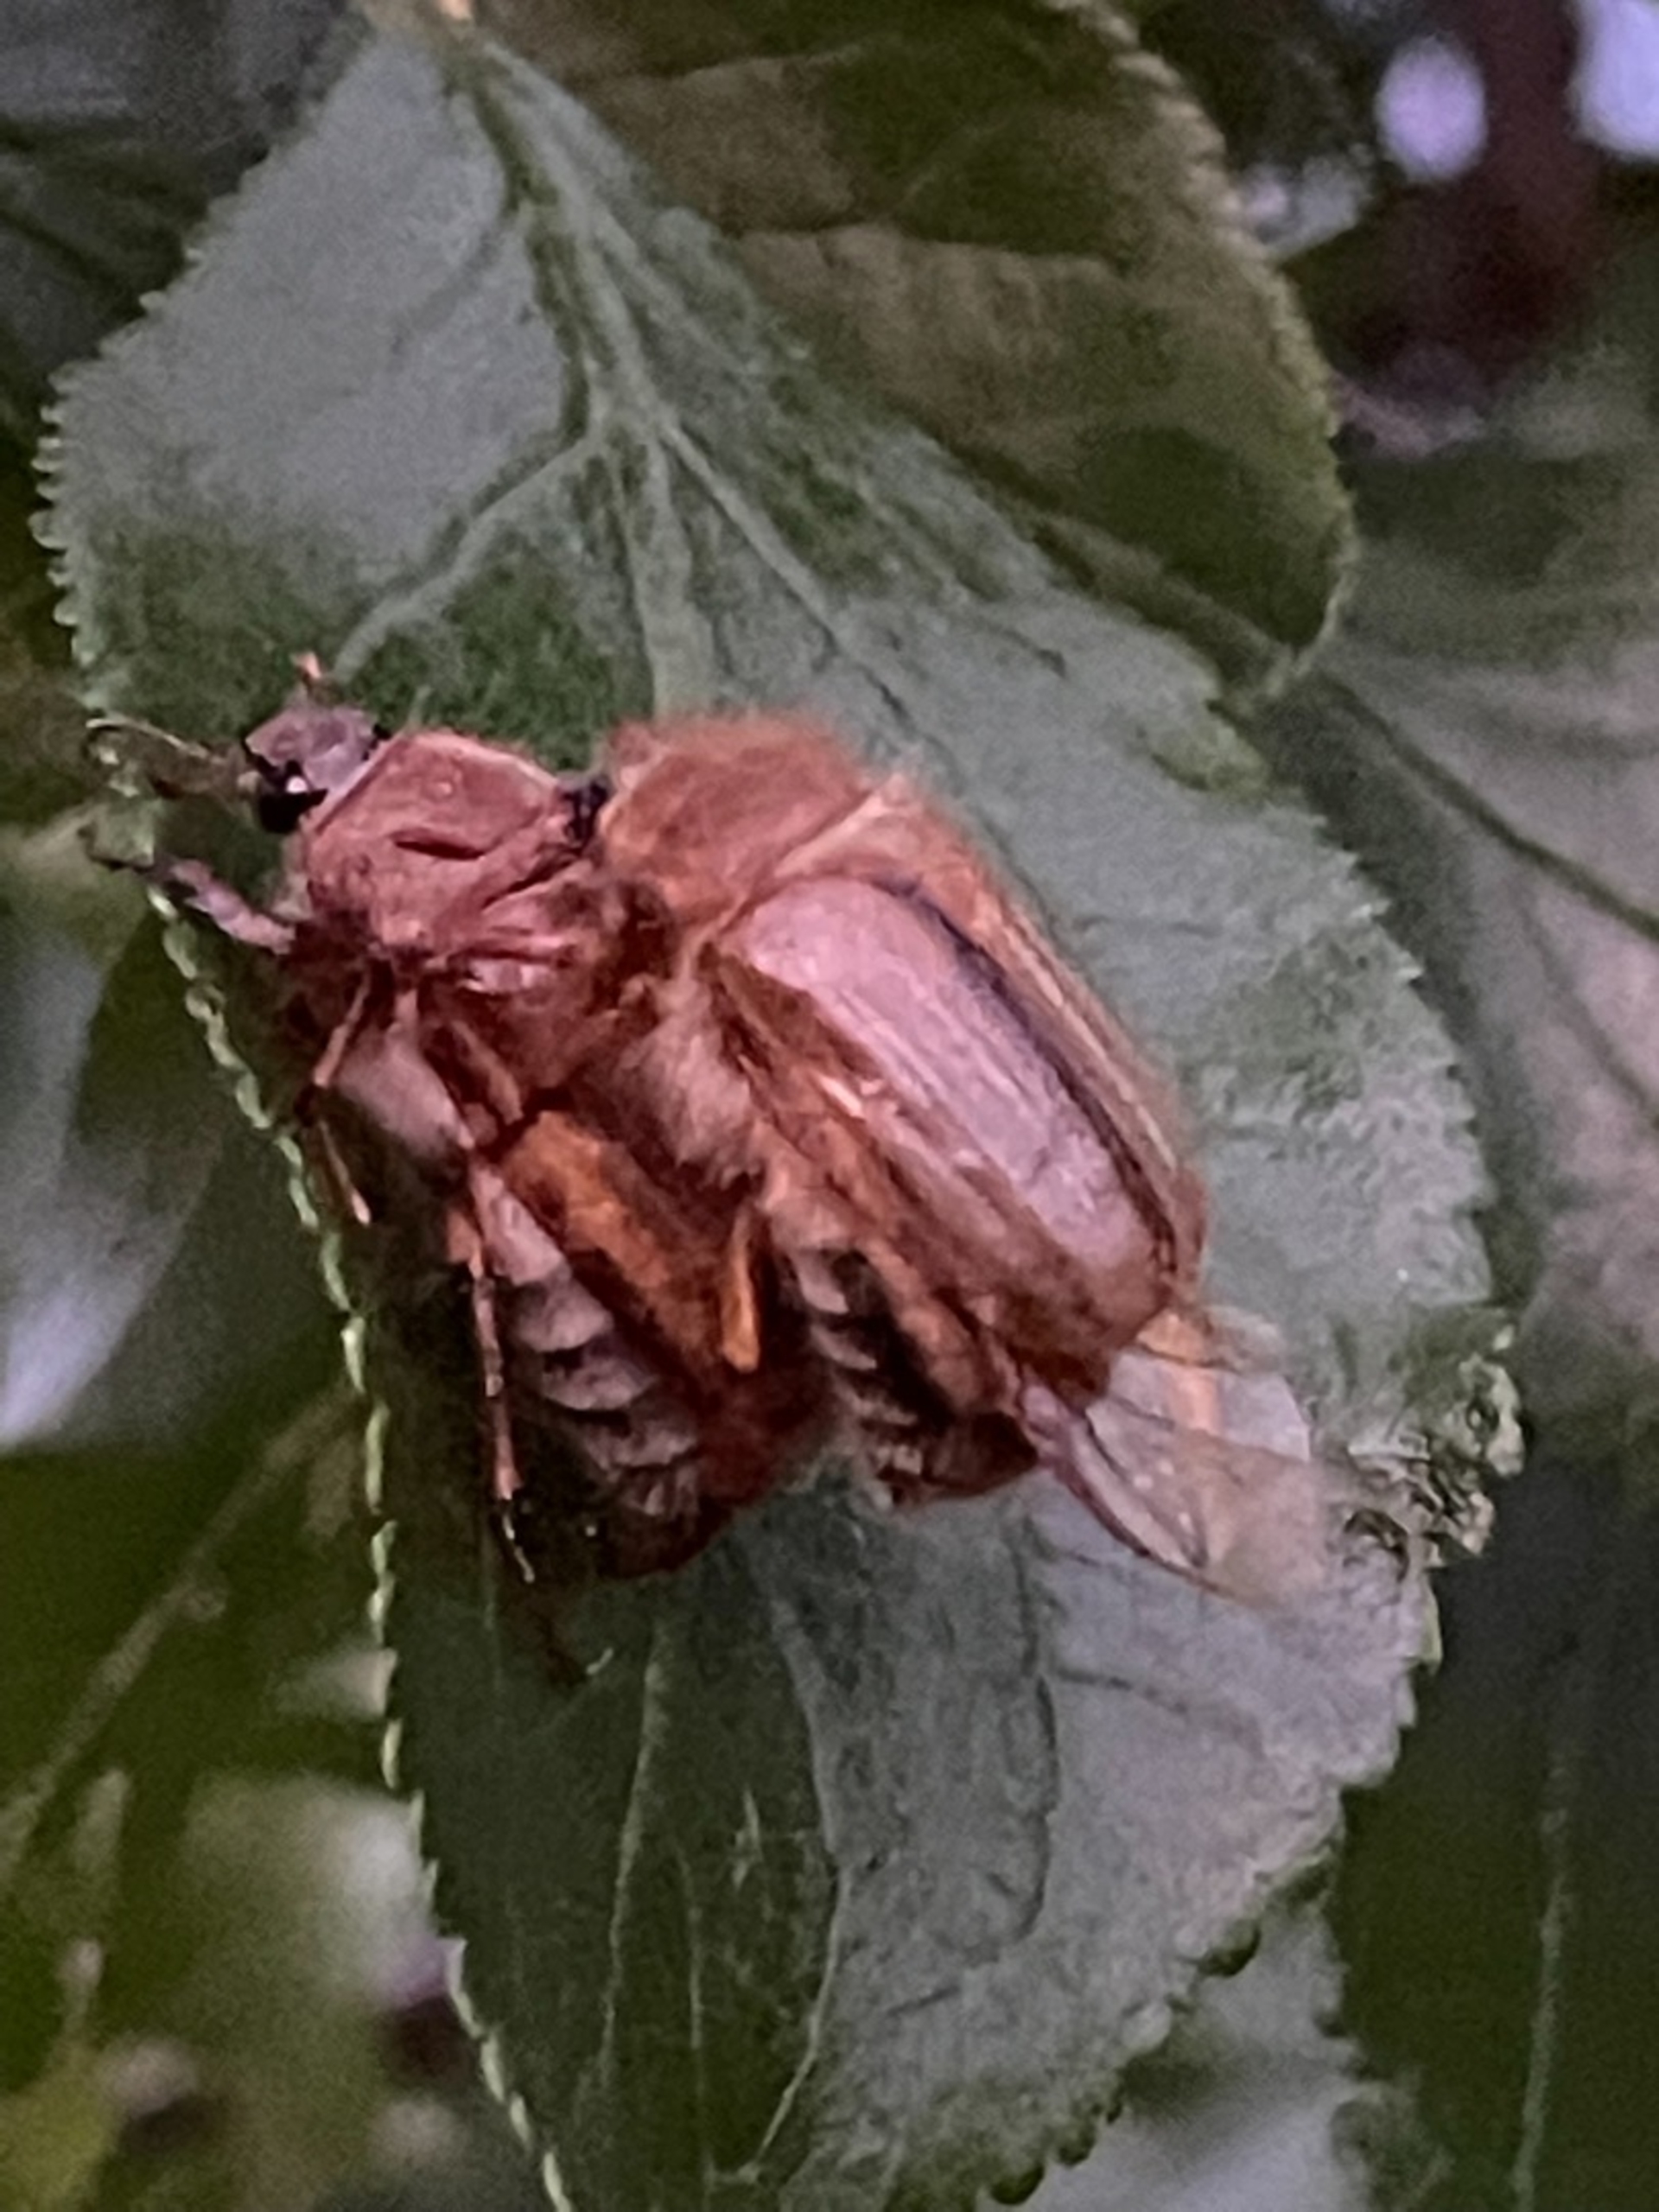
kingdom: Animalia
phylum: Arthropoda
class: Insecta
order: Coleoptera
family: Scarabaeidae
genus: Amphimallon
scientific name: Amphimallon solstitiale
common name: Sankthansoldenborre
